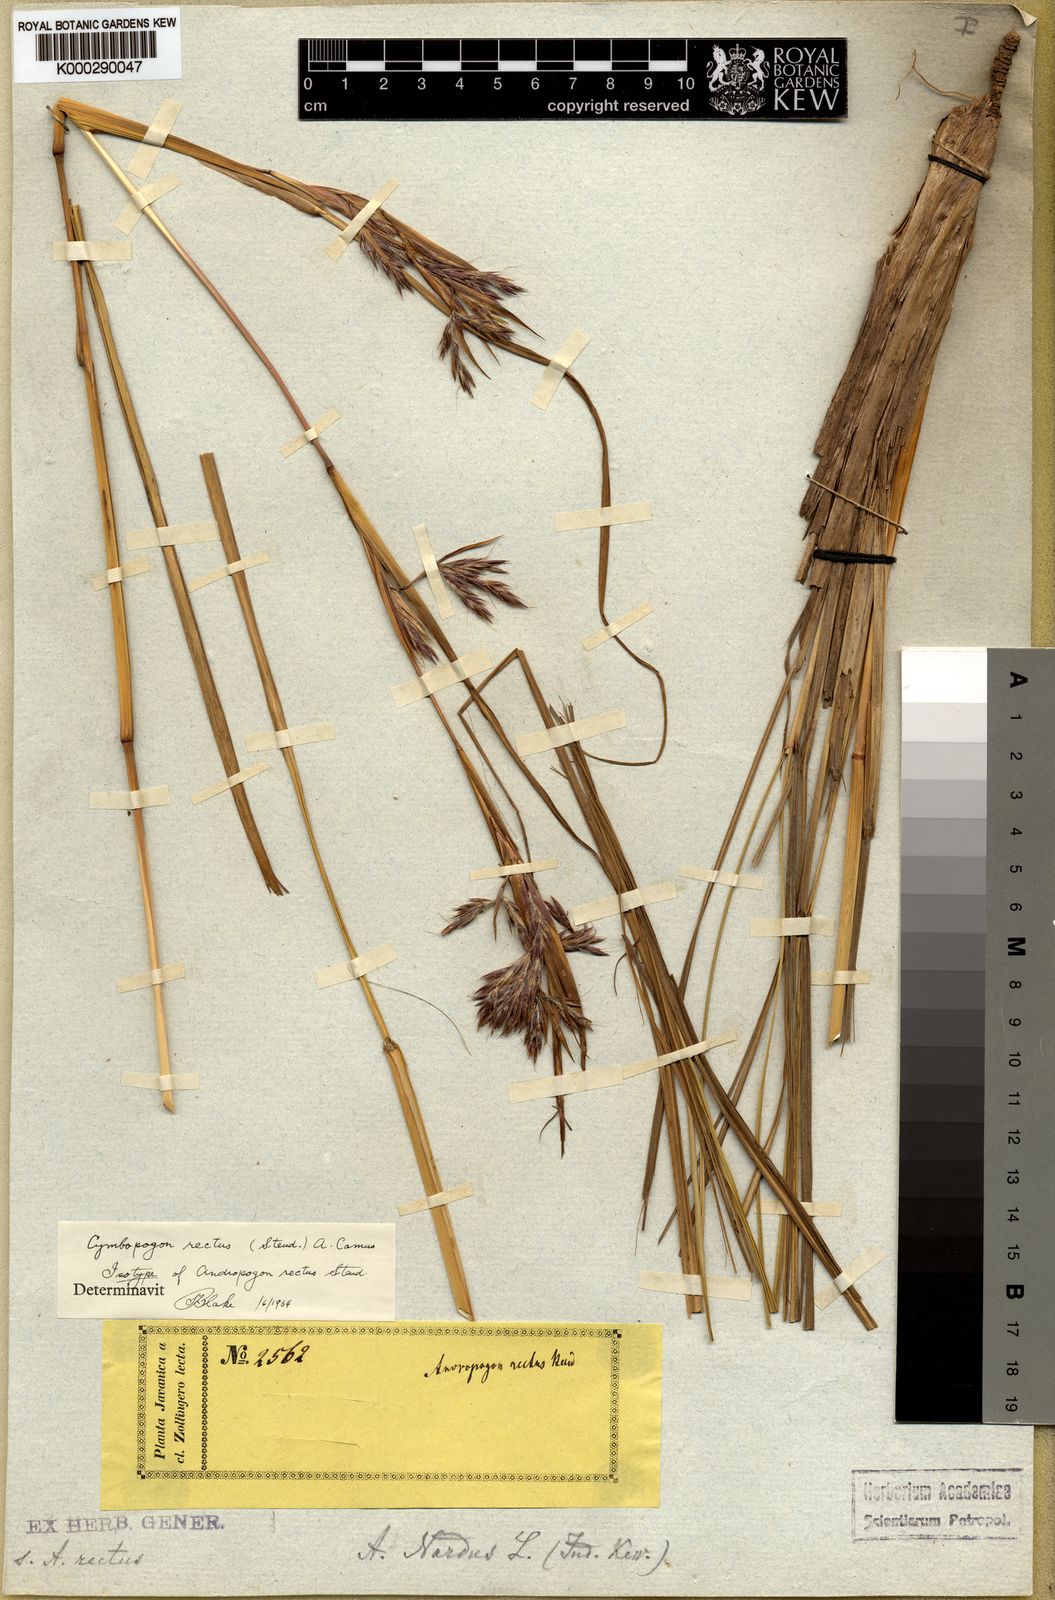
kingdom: Plantae
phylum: Tracheophyta
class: Liliopsida
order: Poales
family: Poaceae
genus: Cymbopogon
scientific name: Cymbopogon rectus
